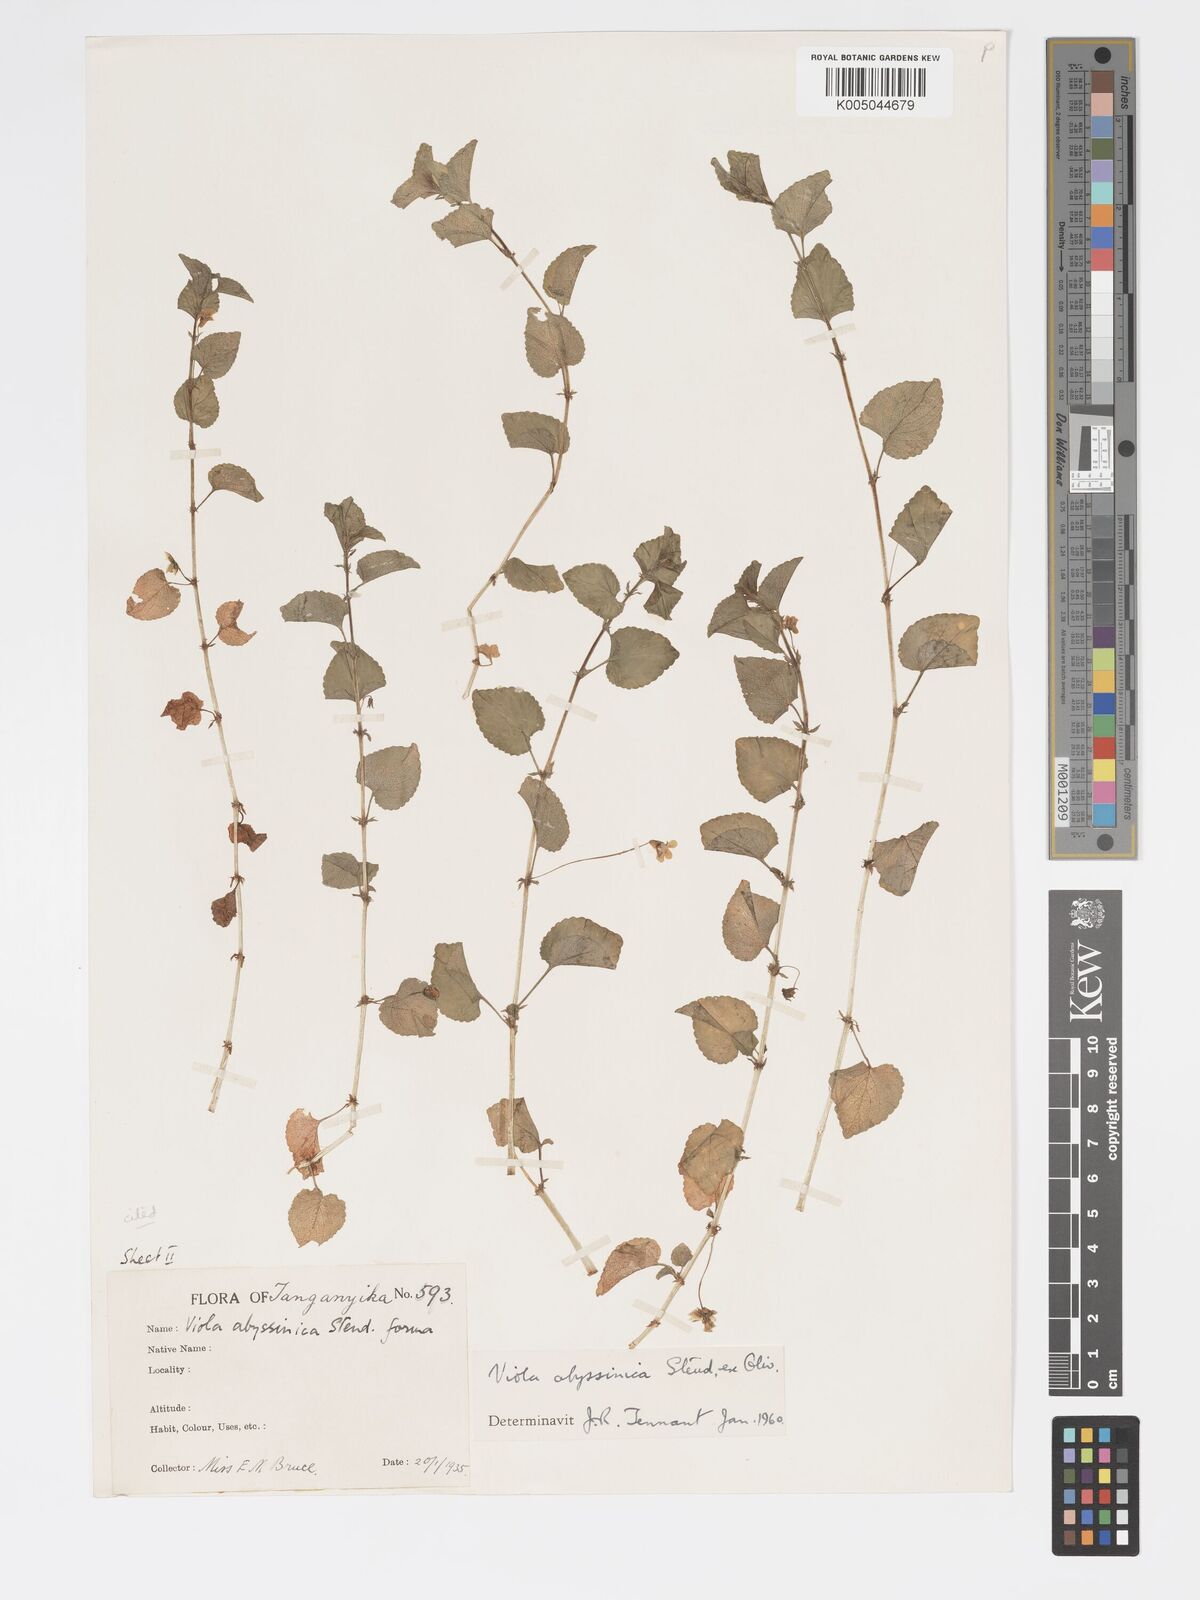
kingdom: Plantae
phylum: Tracheophyta
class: Magnoliopsida
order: Malpighiales
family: Violaceae
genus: Viola
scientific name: Viola abyssinica
